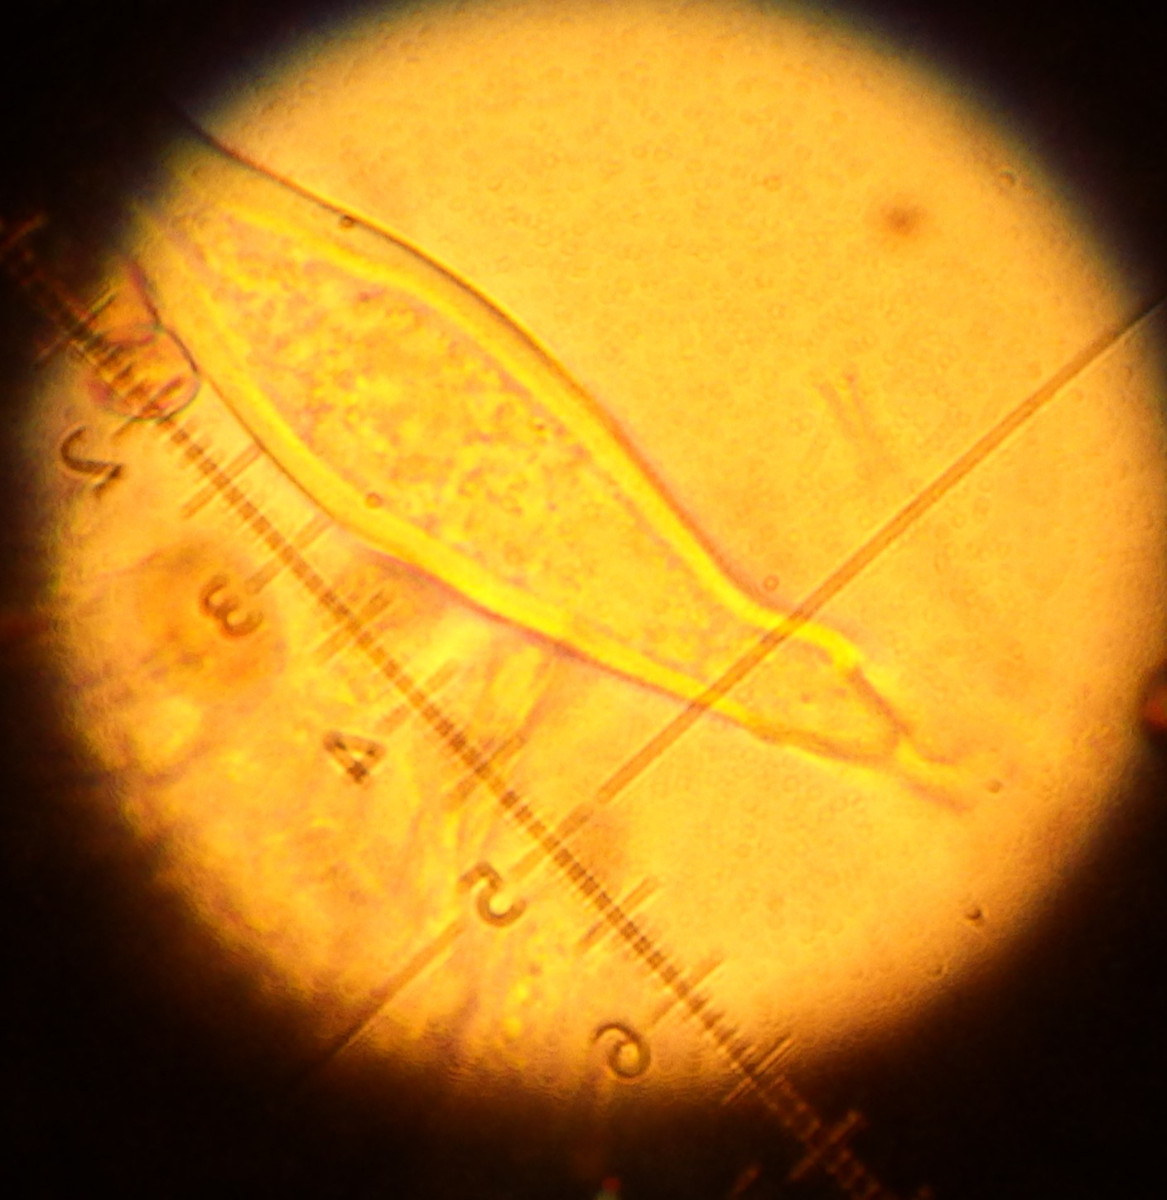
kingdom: Fungi
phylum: Basidiomycota
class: Agaricomycetes
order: Agaricales
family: Inocybaceae
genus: Inocybe
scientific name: Inocybe
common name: trævlhat
